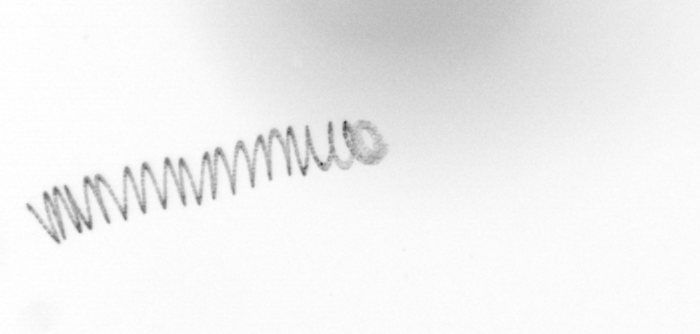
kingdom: Chromista
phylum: Ochrophyta
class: Bacillariophyceae
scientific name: Bacillariophyceae
